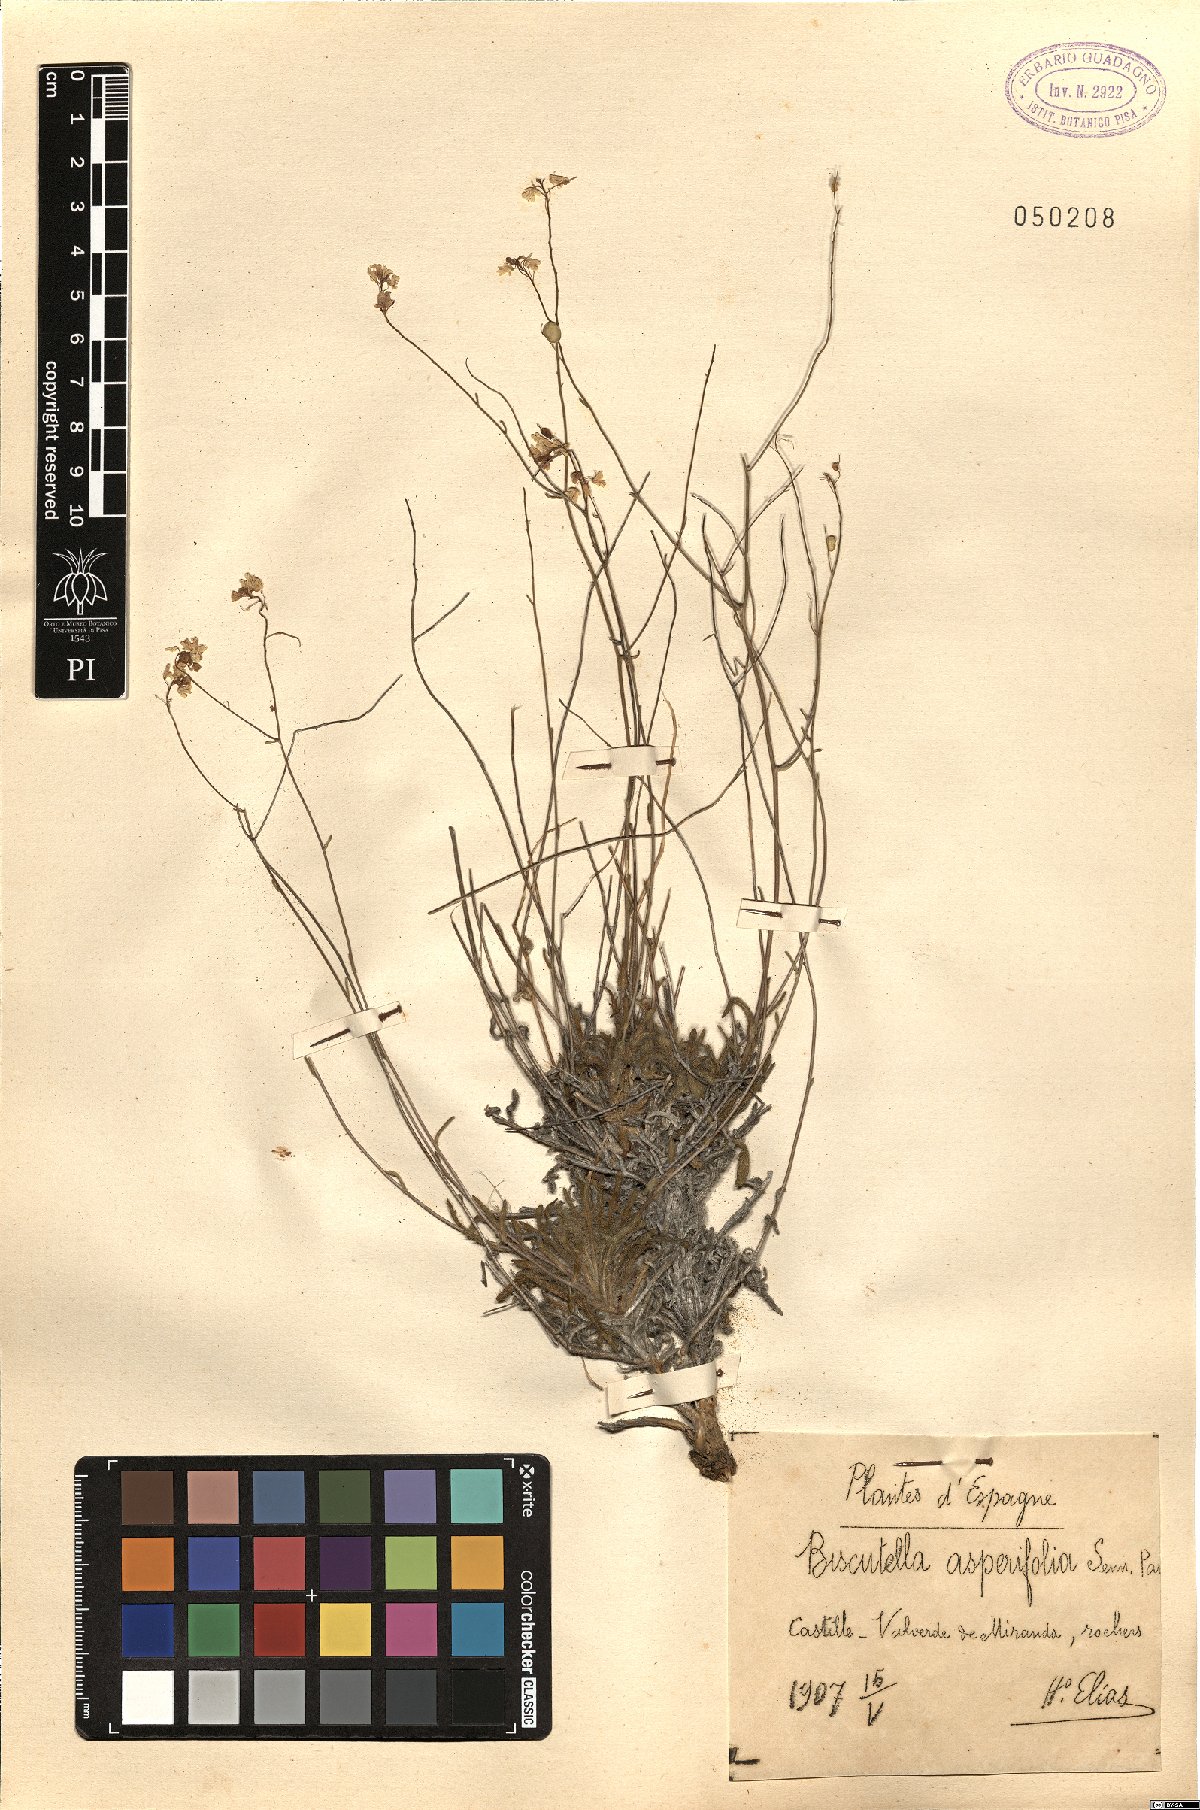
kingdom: Plantae
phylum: Tracheophyta
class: Magnoliopsida
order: Brassicales
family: Brassicaceae
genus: Biscutella
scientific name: Biscutella valentina
